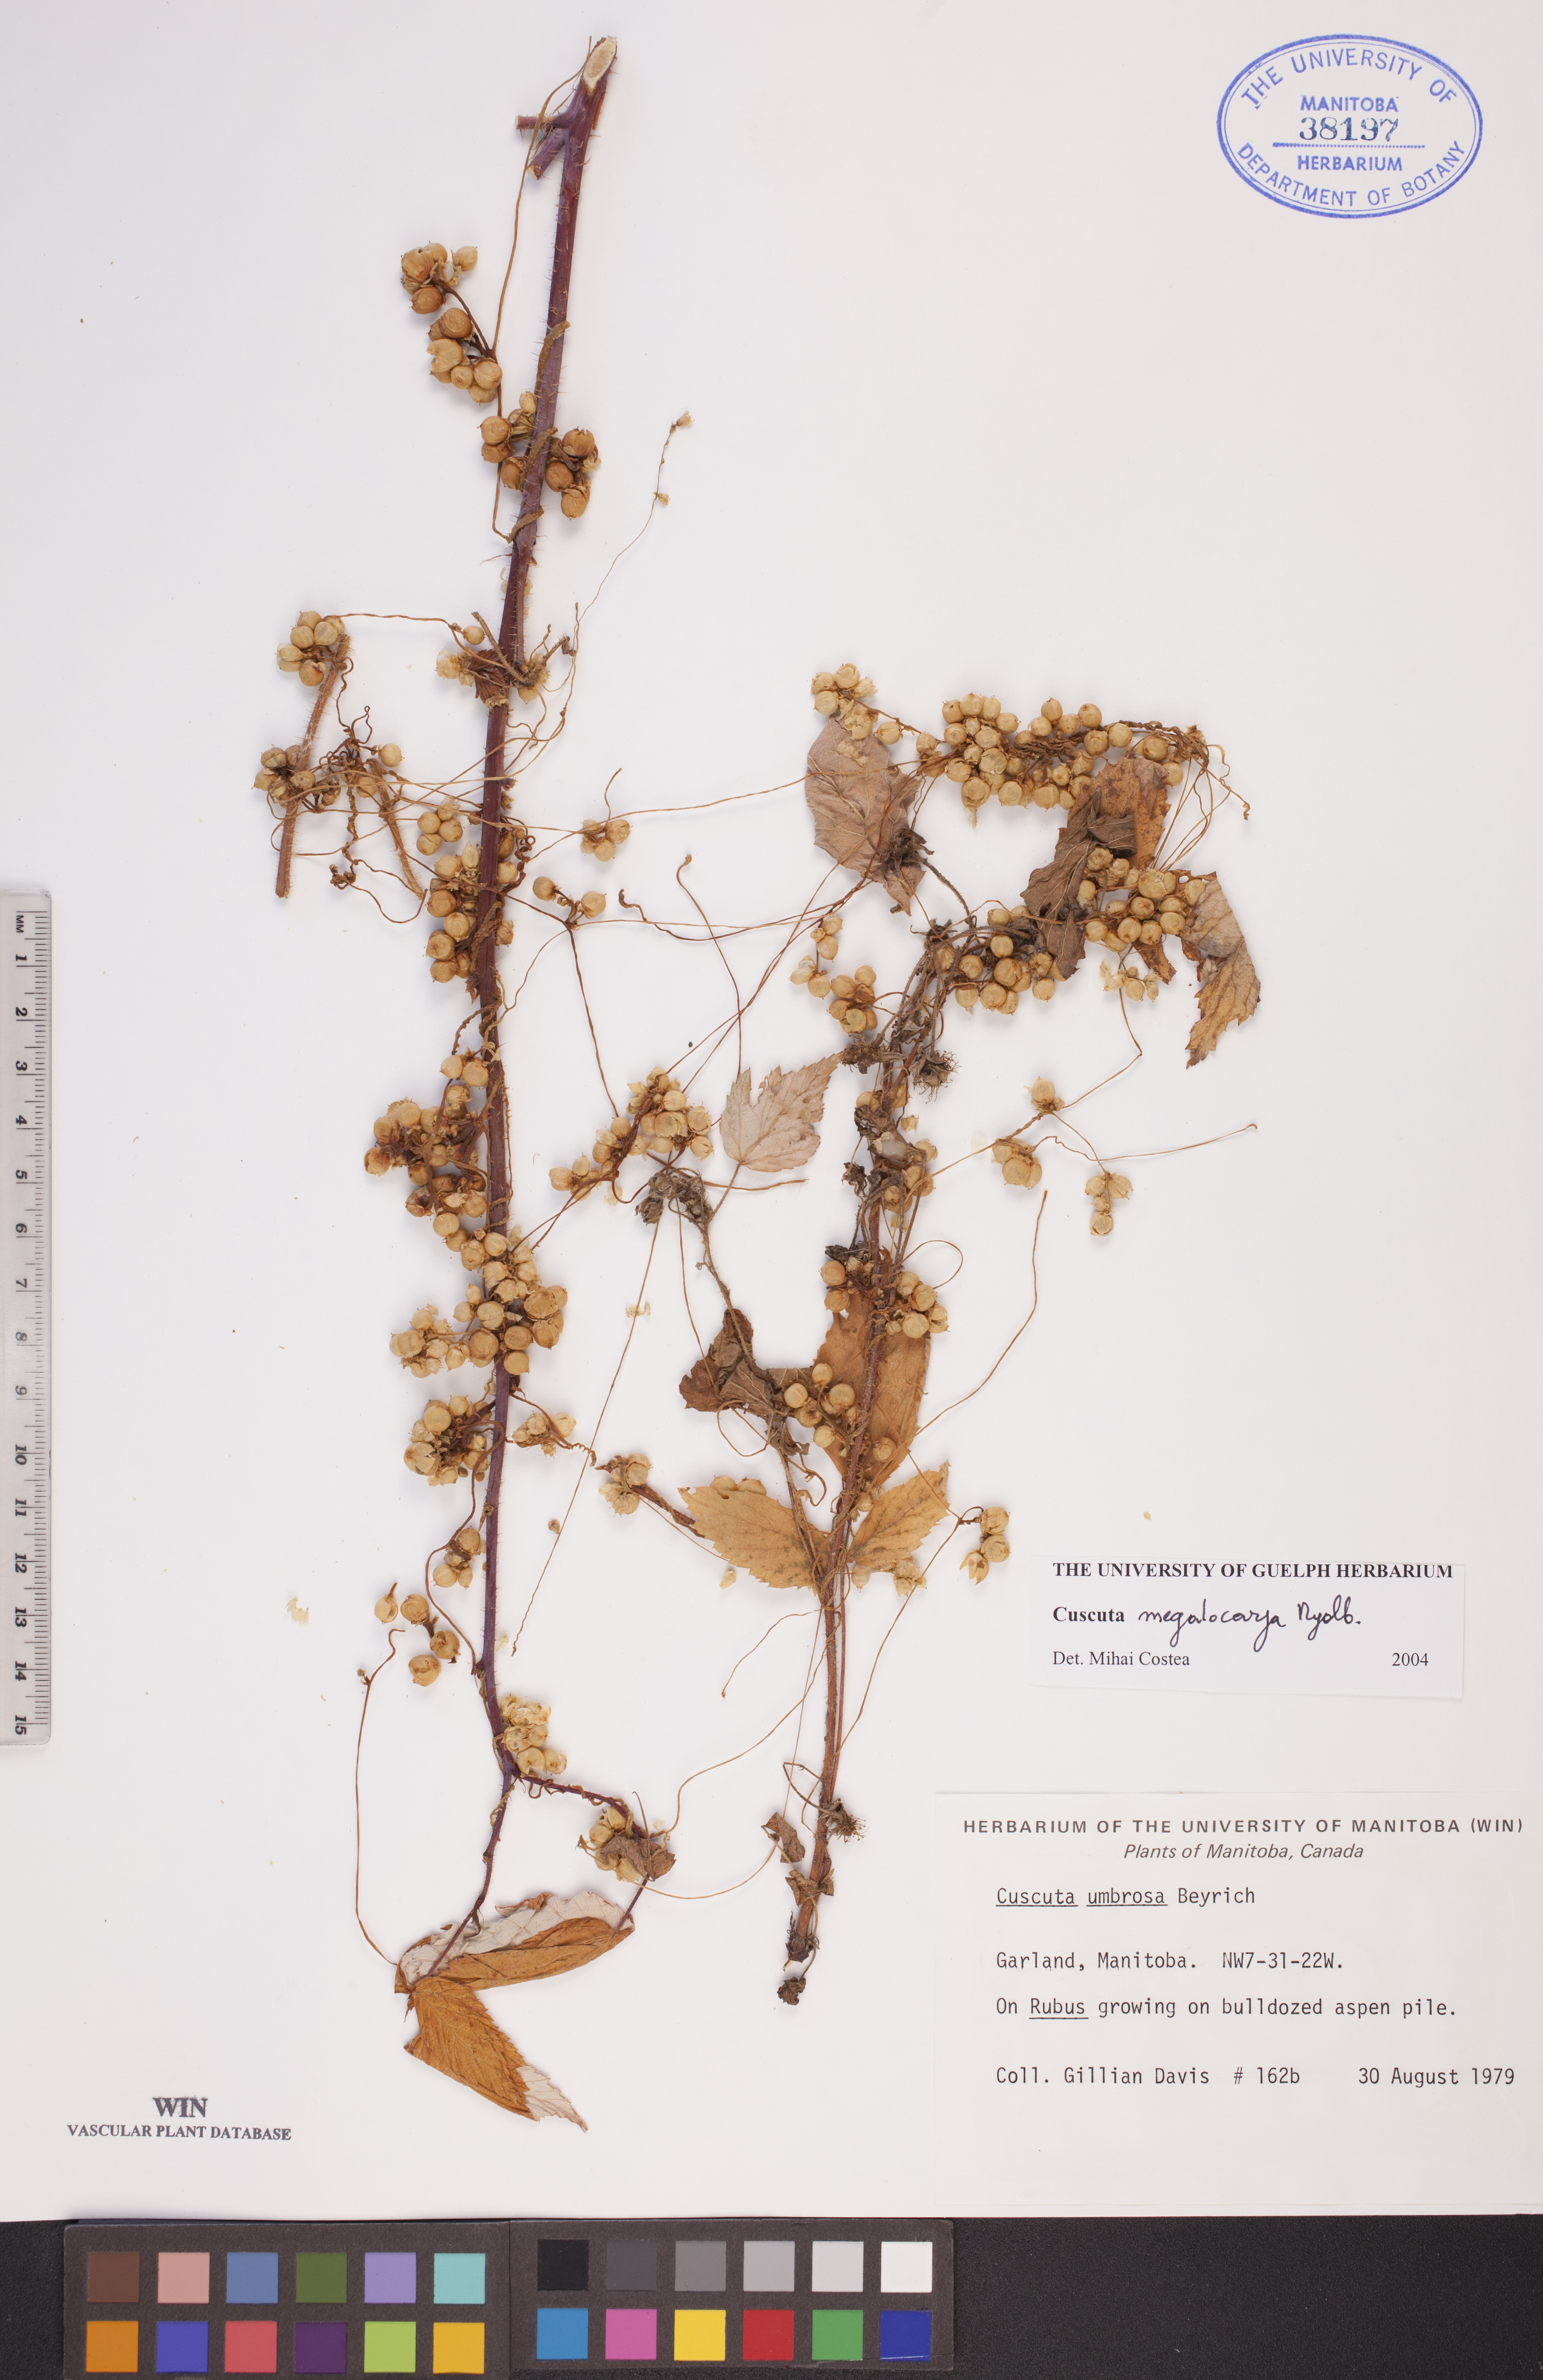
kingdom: Plantae
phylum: Tracheophyta
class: Magnoliopsida
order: Solanales
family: Convolvulaceae
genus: Cuscuta
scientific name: Cuscuta umbrosa
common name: Bigfruit dodder
